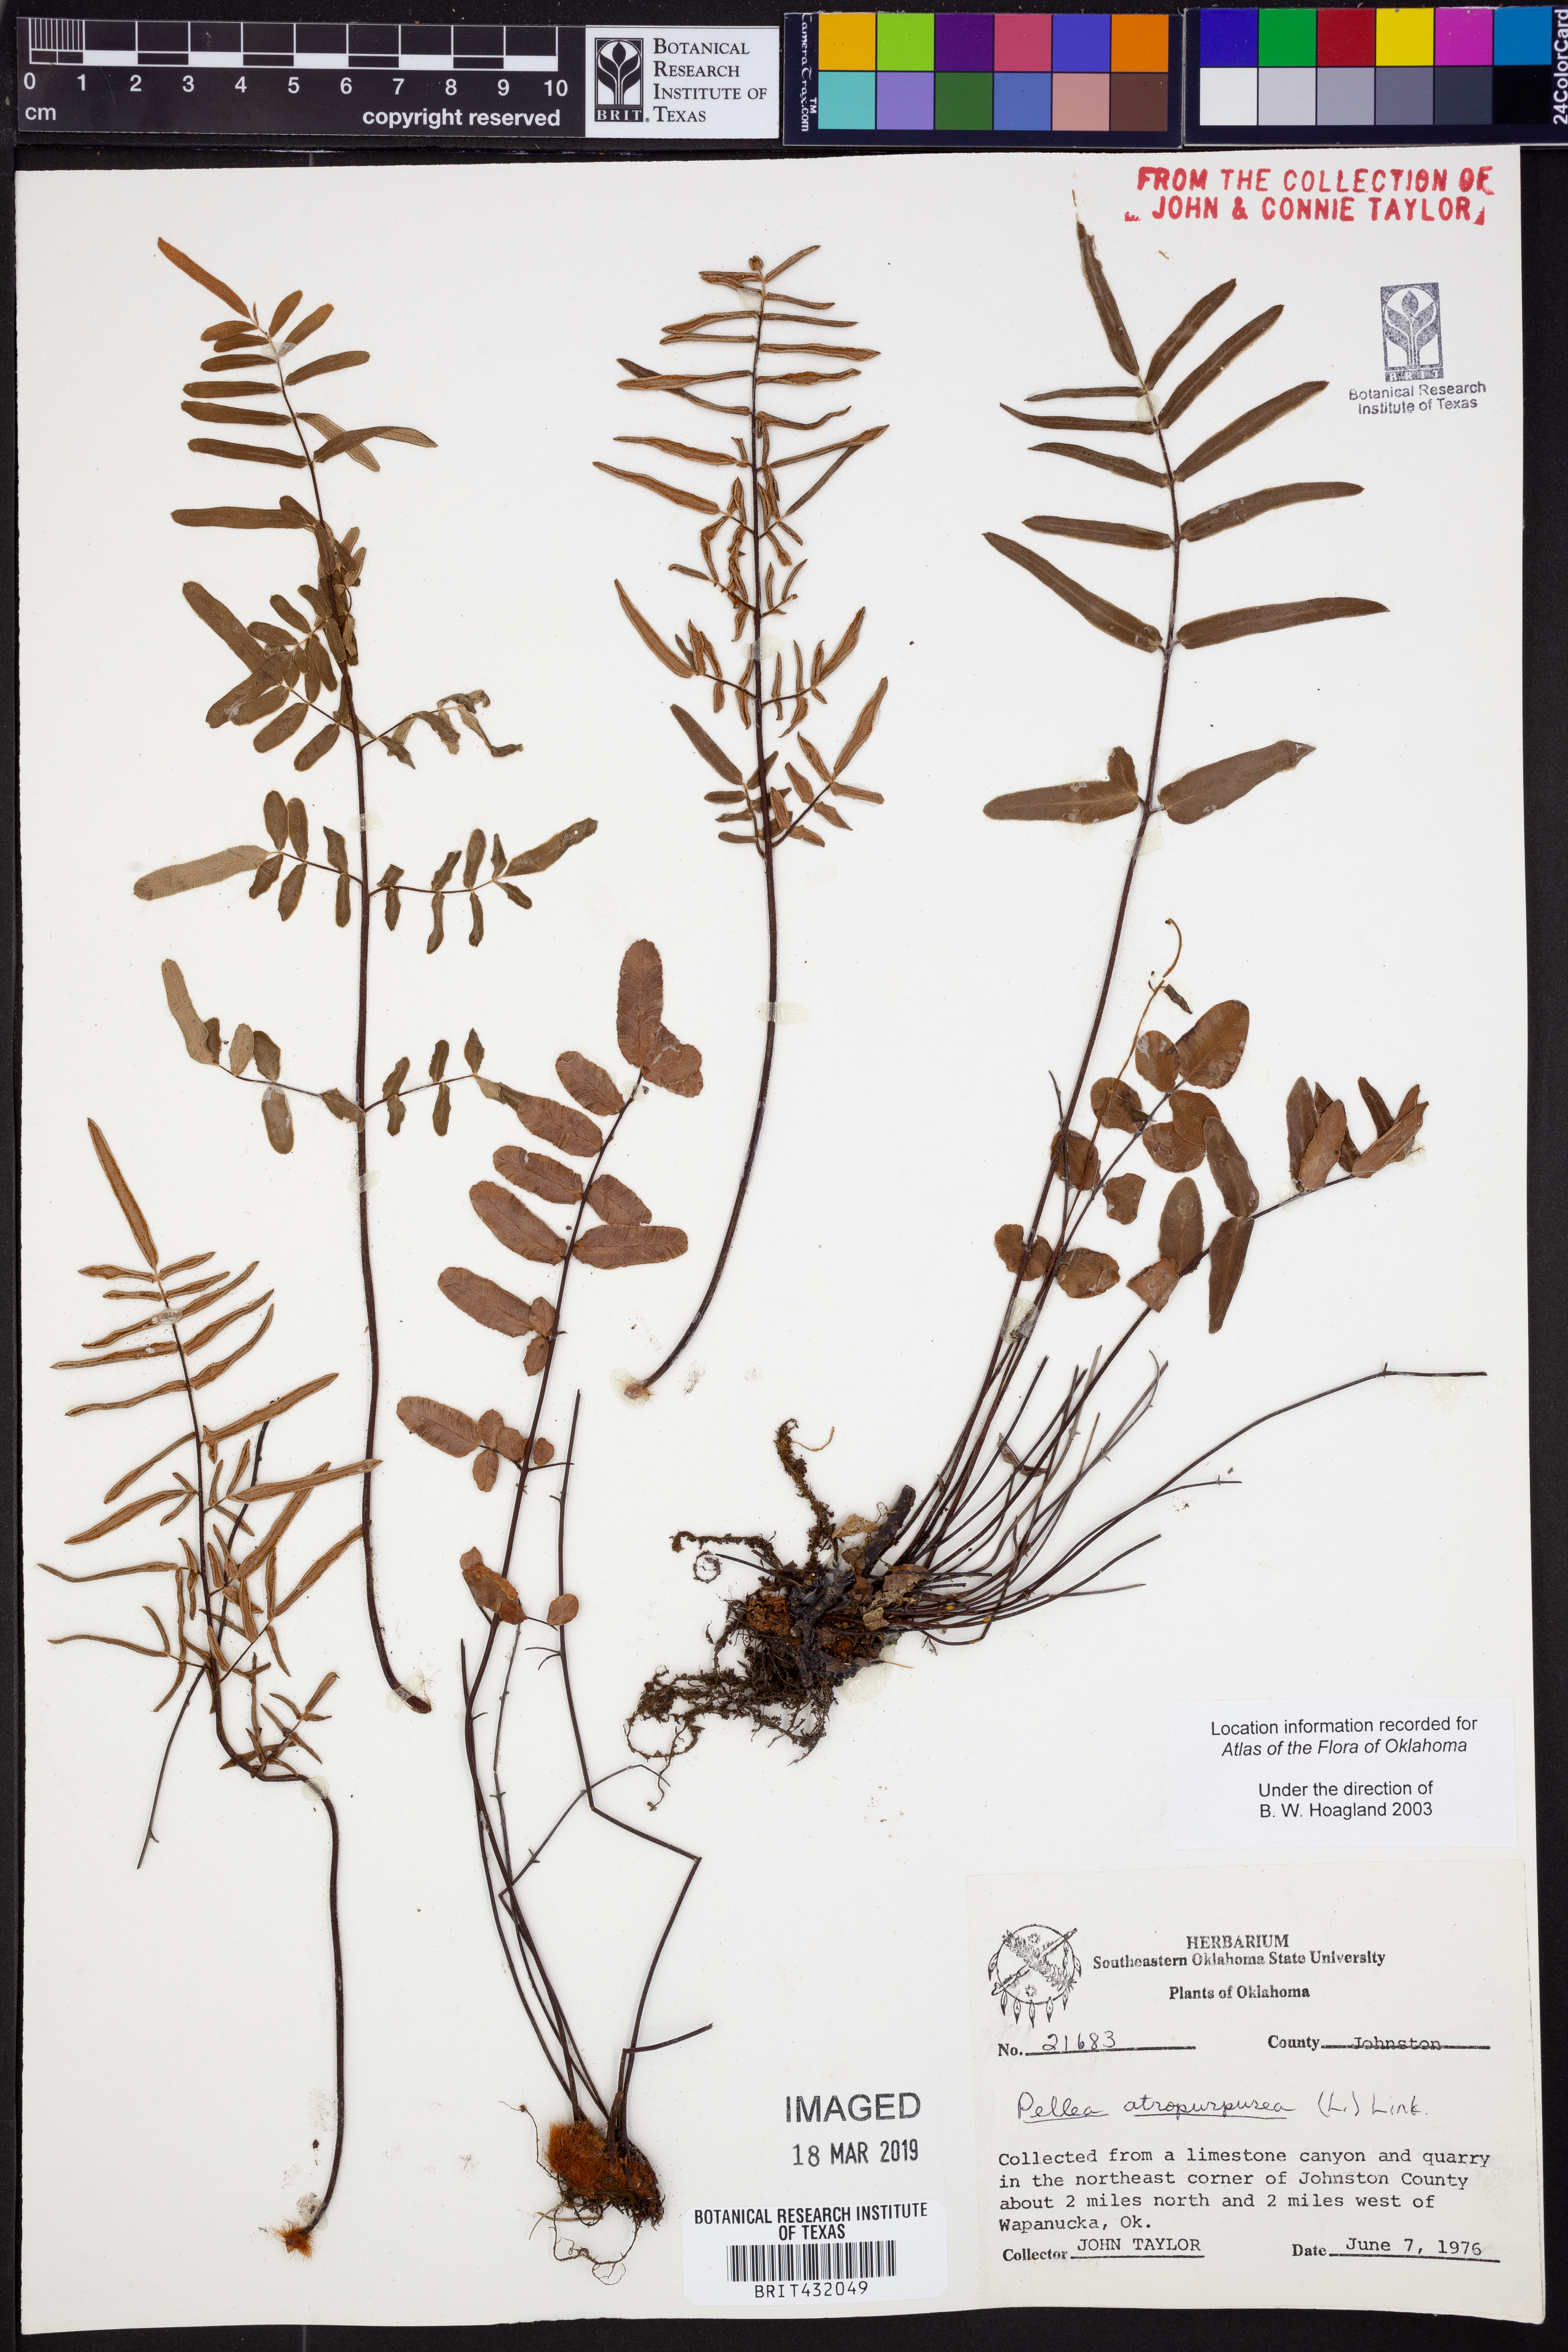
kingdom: Plantae
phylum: Tracheophyta
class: Polypodiopsida
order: Polypodiales
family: Pteridaceae
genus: Pellaea
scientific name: Pellaea atropurpurea
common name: Hairy cliffbrake
